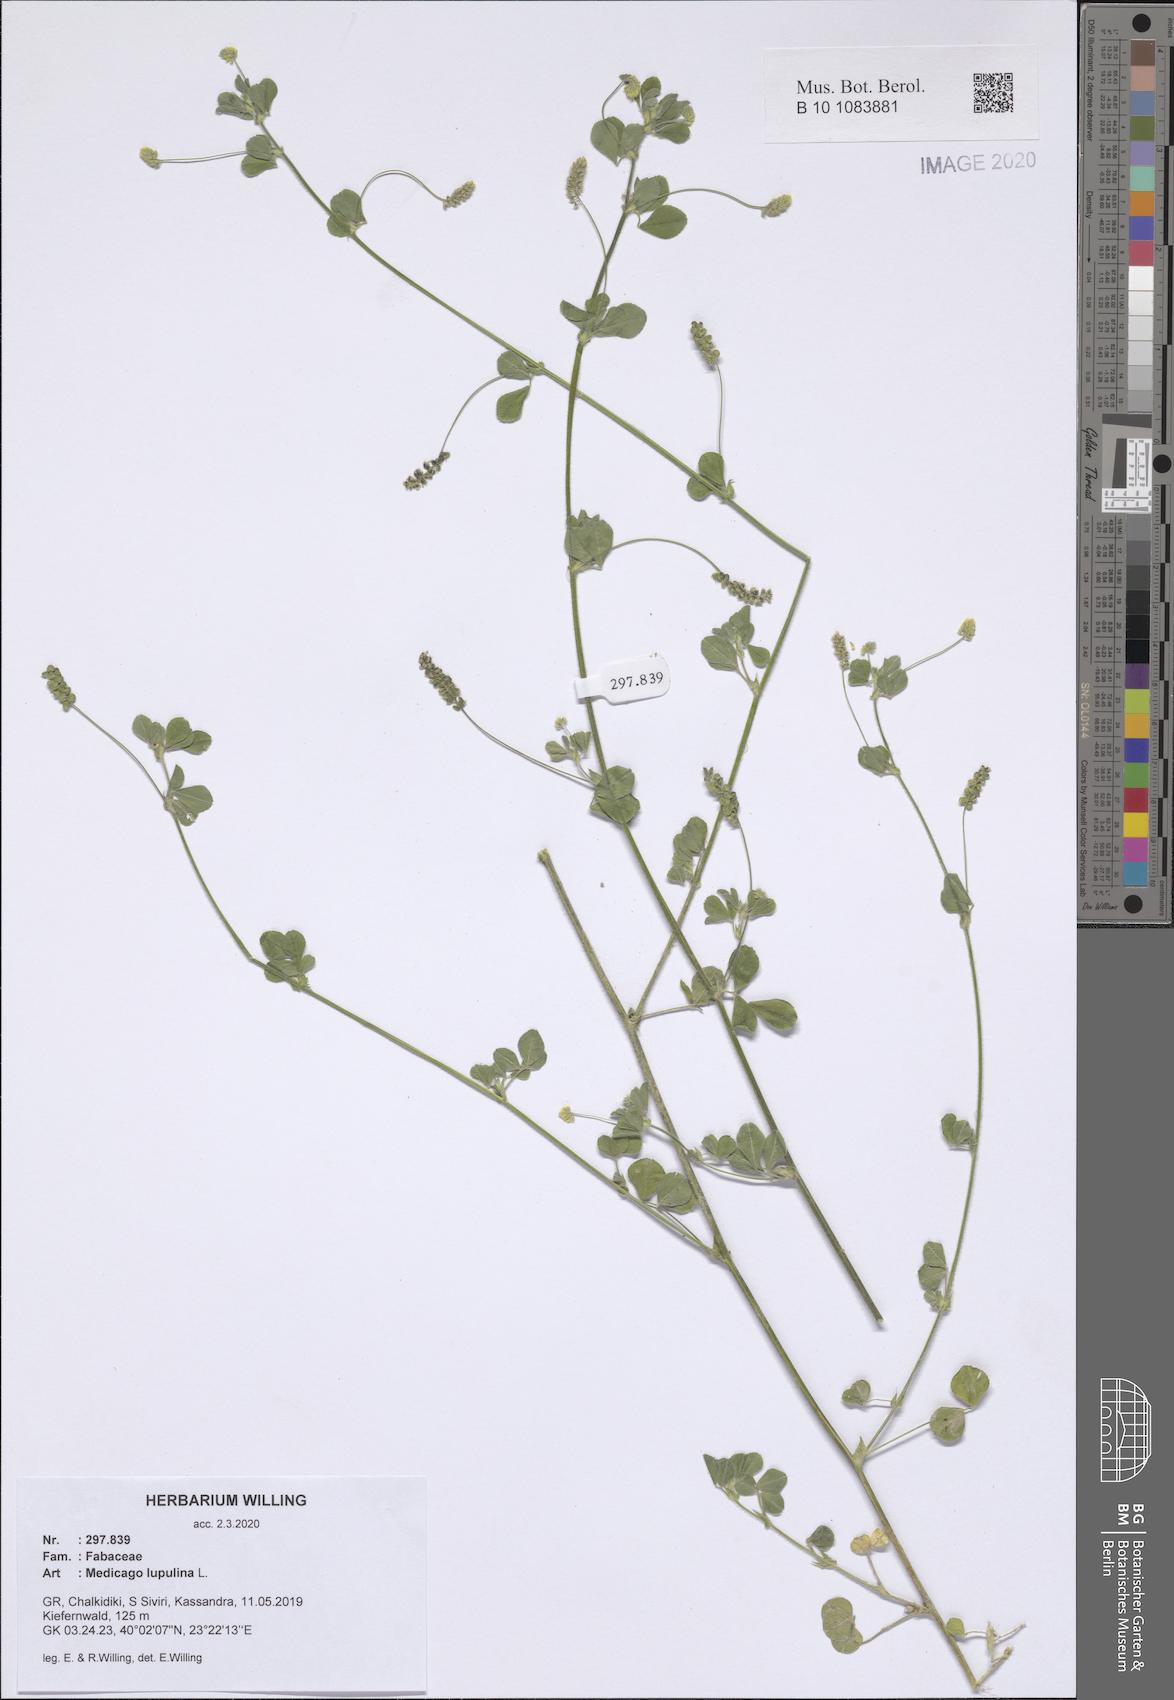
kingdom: Plantae
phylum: Tracheophyta
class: Magnoliopsida
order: Fabales
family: Fabaceae
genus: Medicago
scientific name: Medicago lupulina
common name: Black medick
